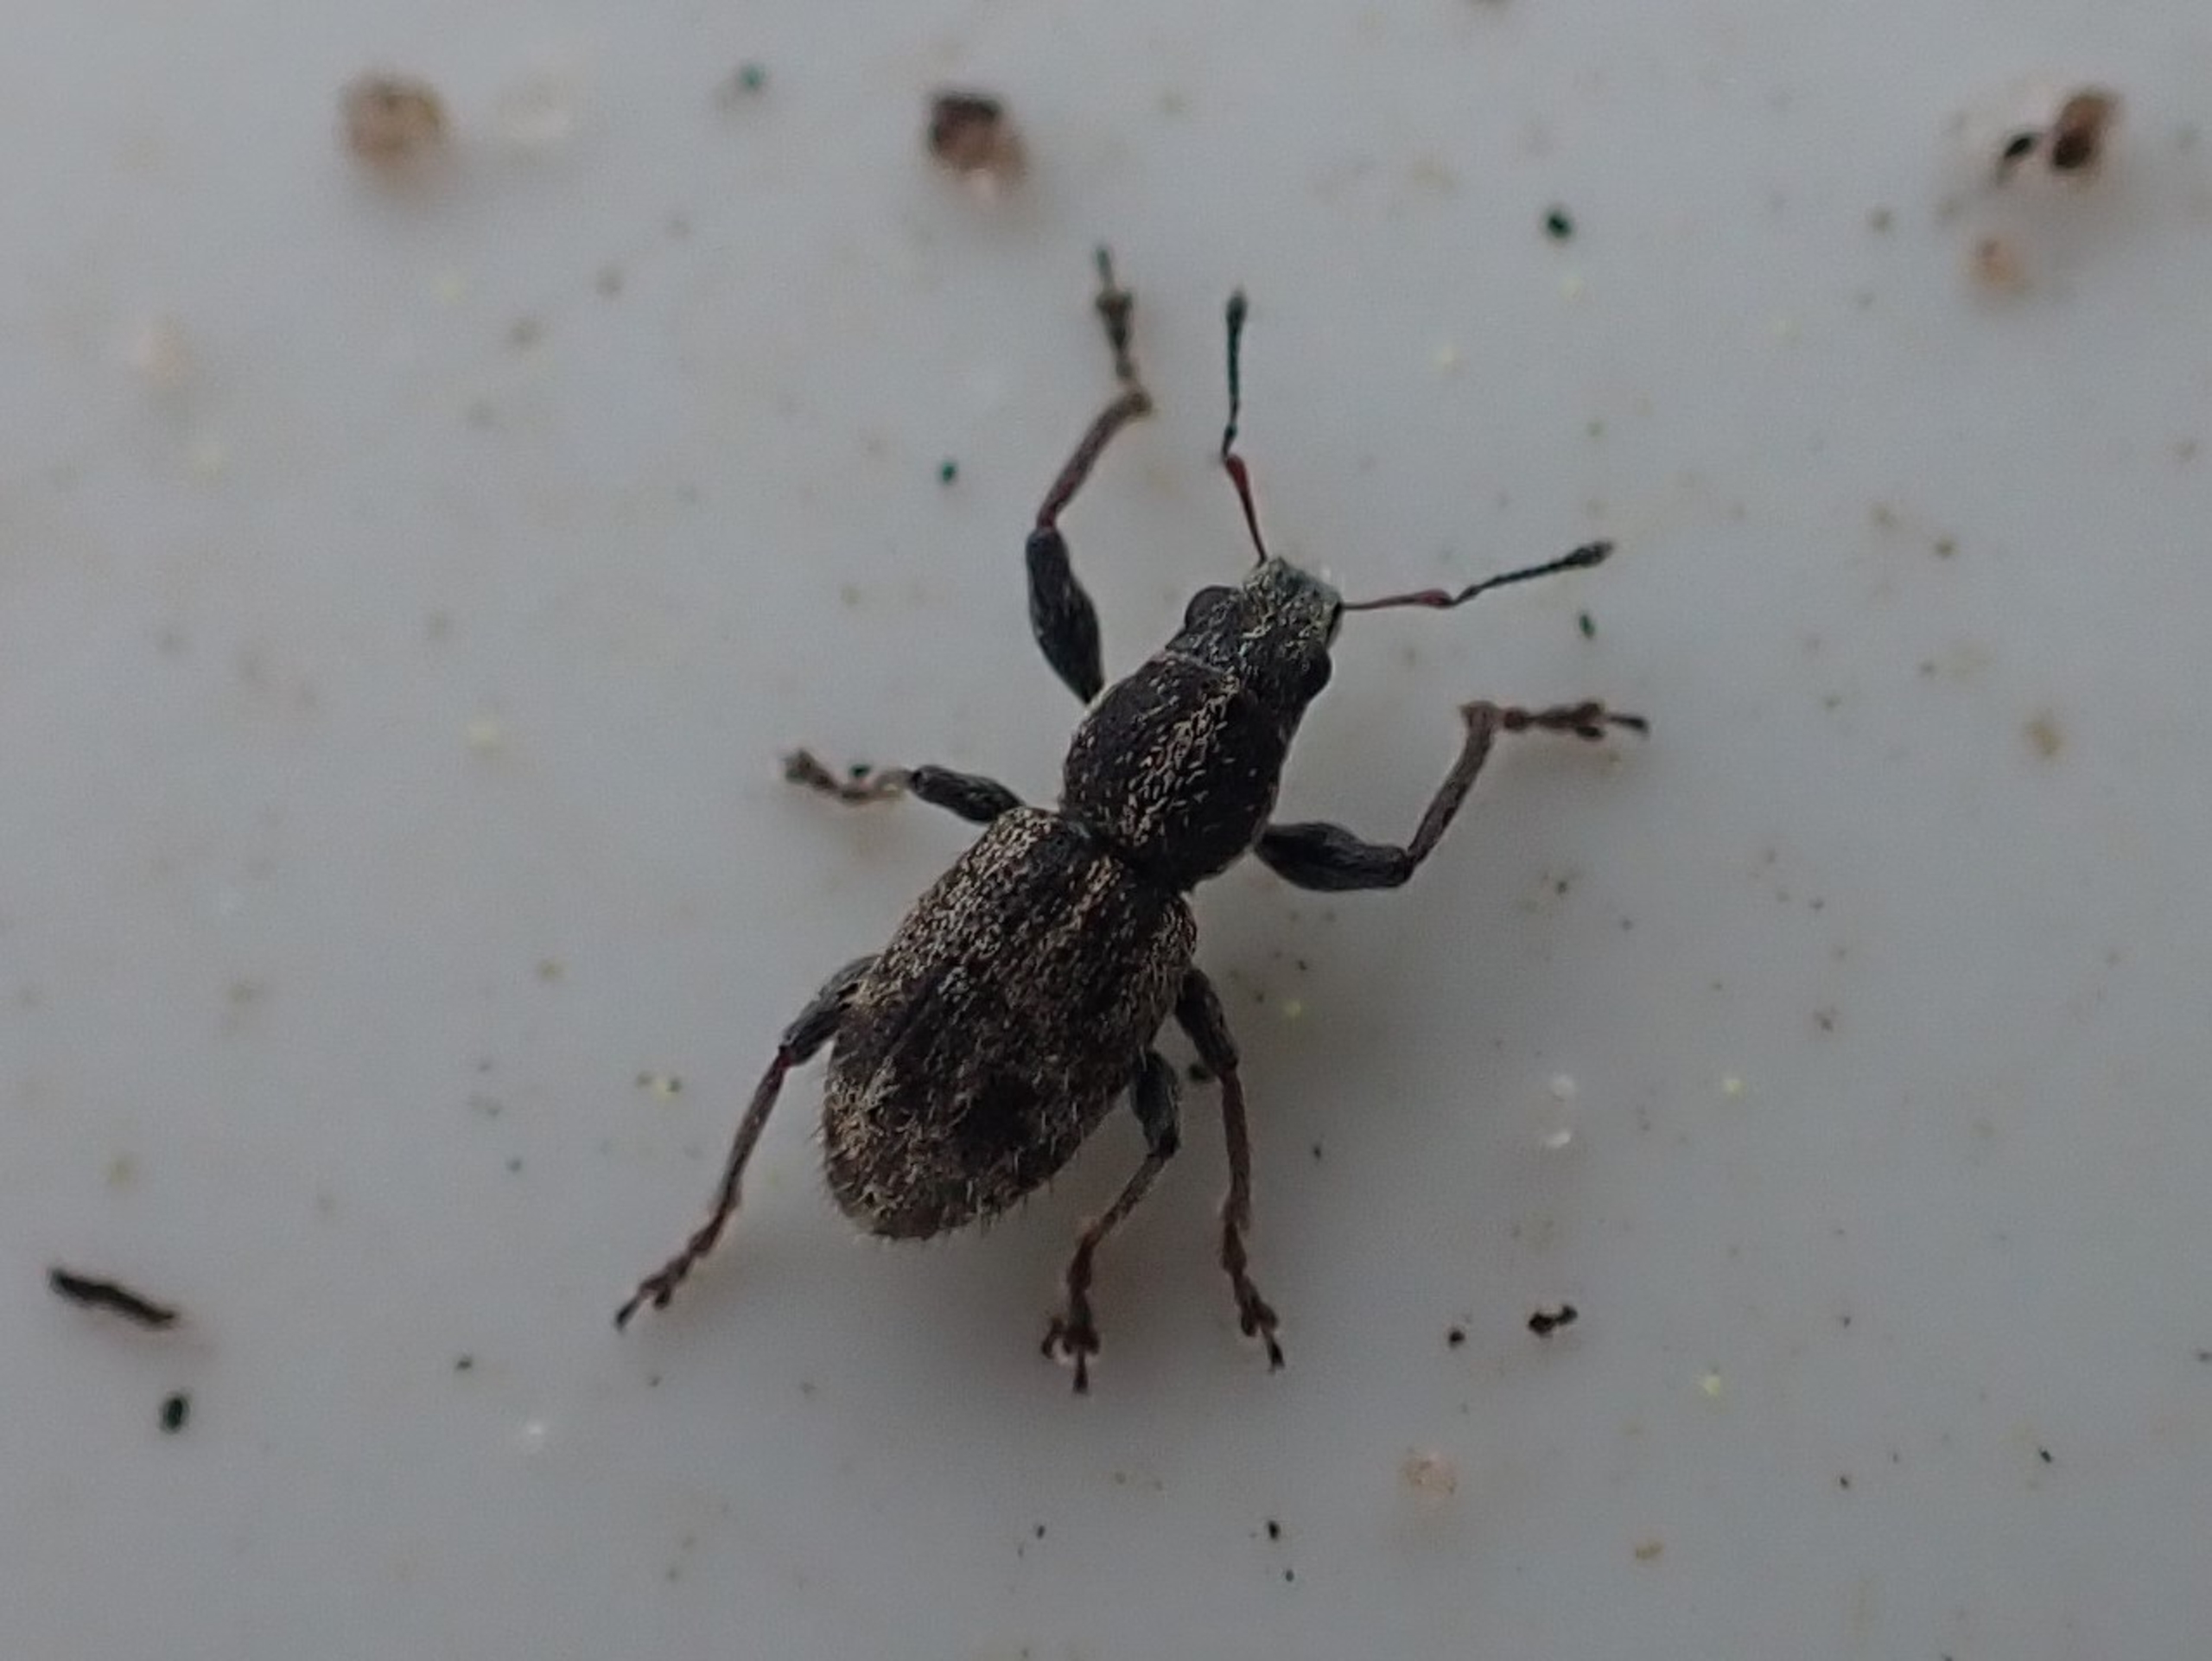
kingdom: Animalia
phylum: Arthropoda
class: Insecta
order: Coleoptera
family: Curculionidae
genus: Andrion
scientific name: Andrion regensteinense
